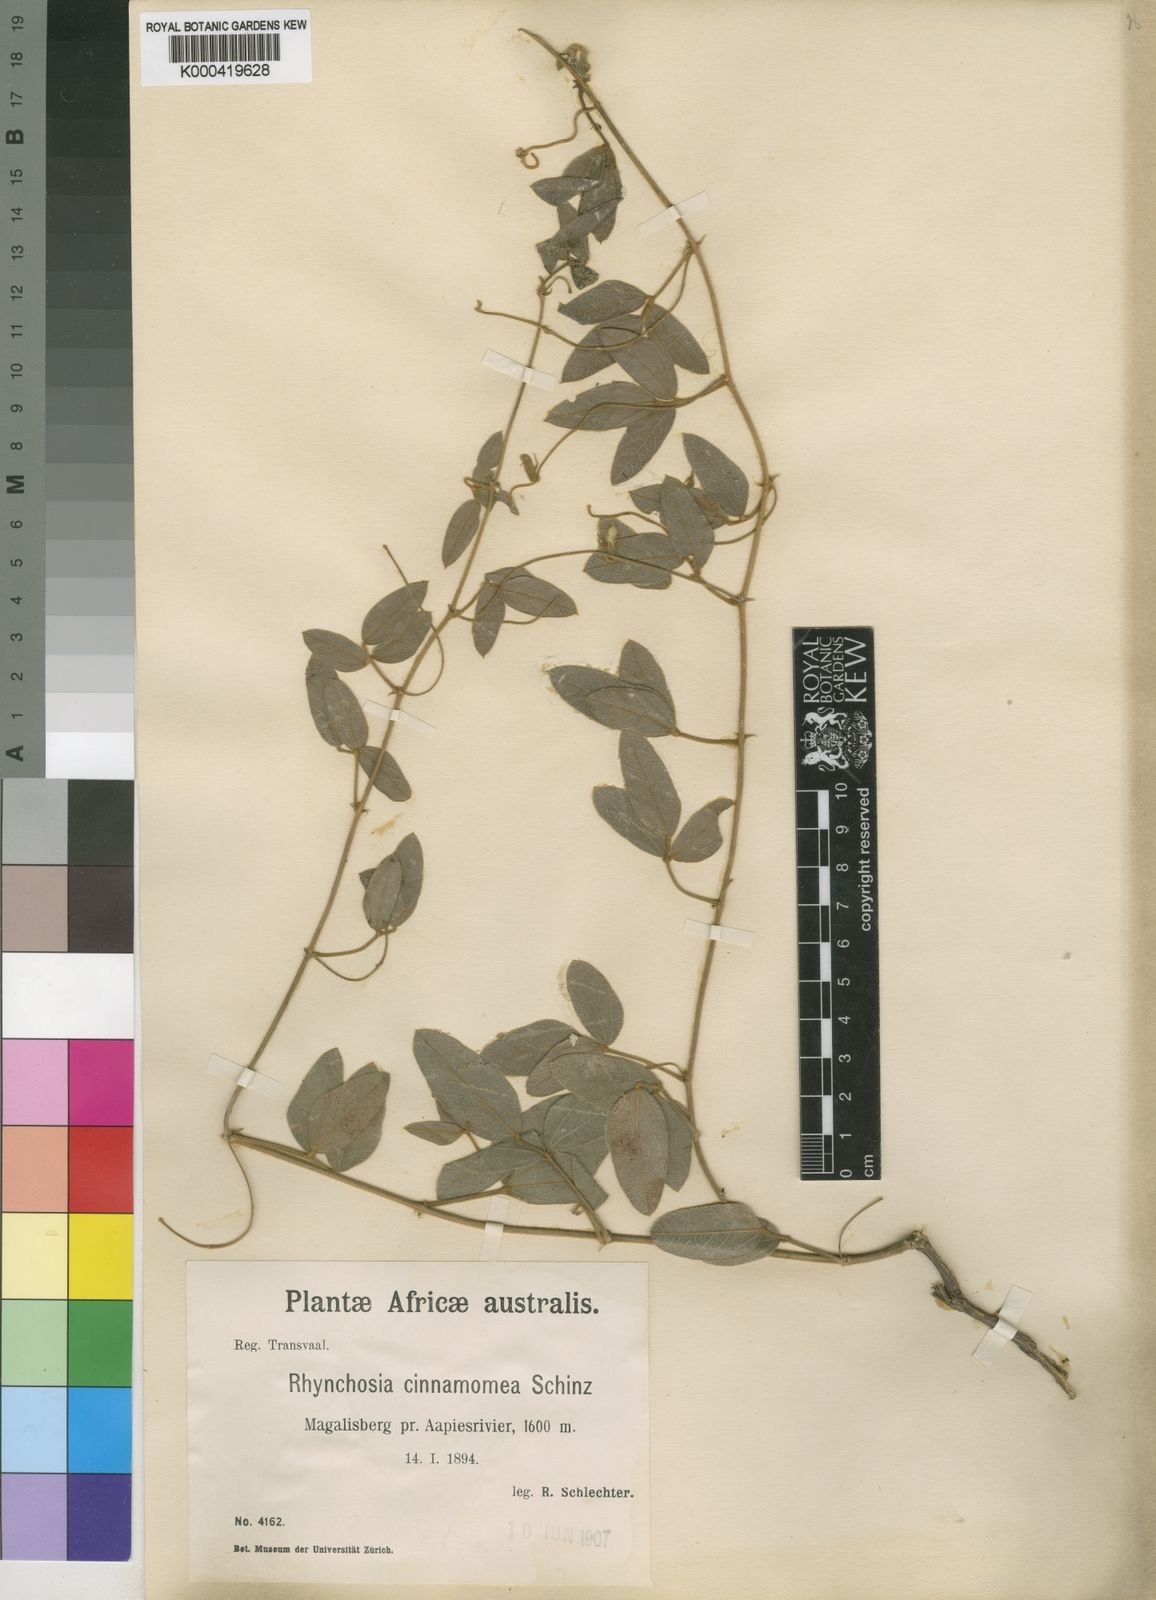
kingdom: Plantae
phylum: Tracheophyta
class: Magnoliopsida
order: Fabales
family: Fabaceae
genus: Rhynchosia
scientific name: Rhynchosia totta
